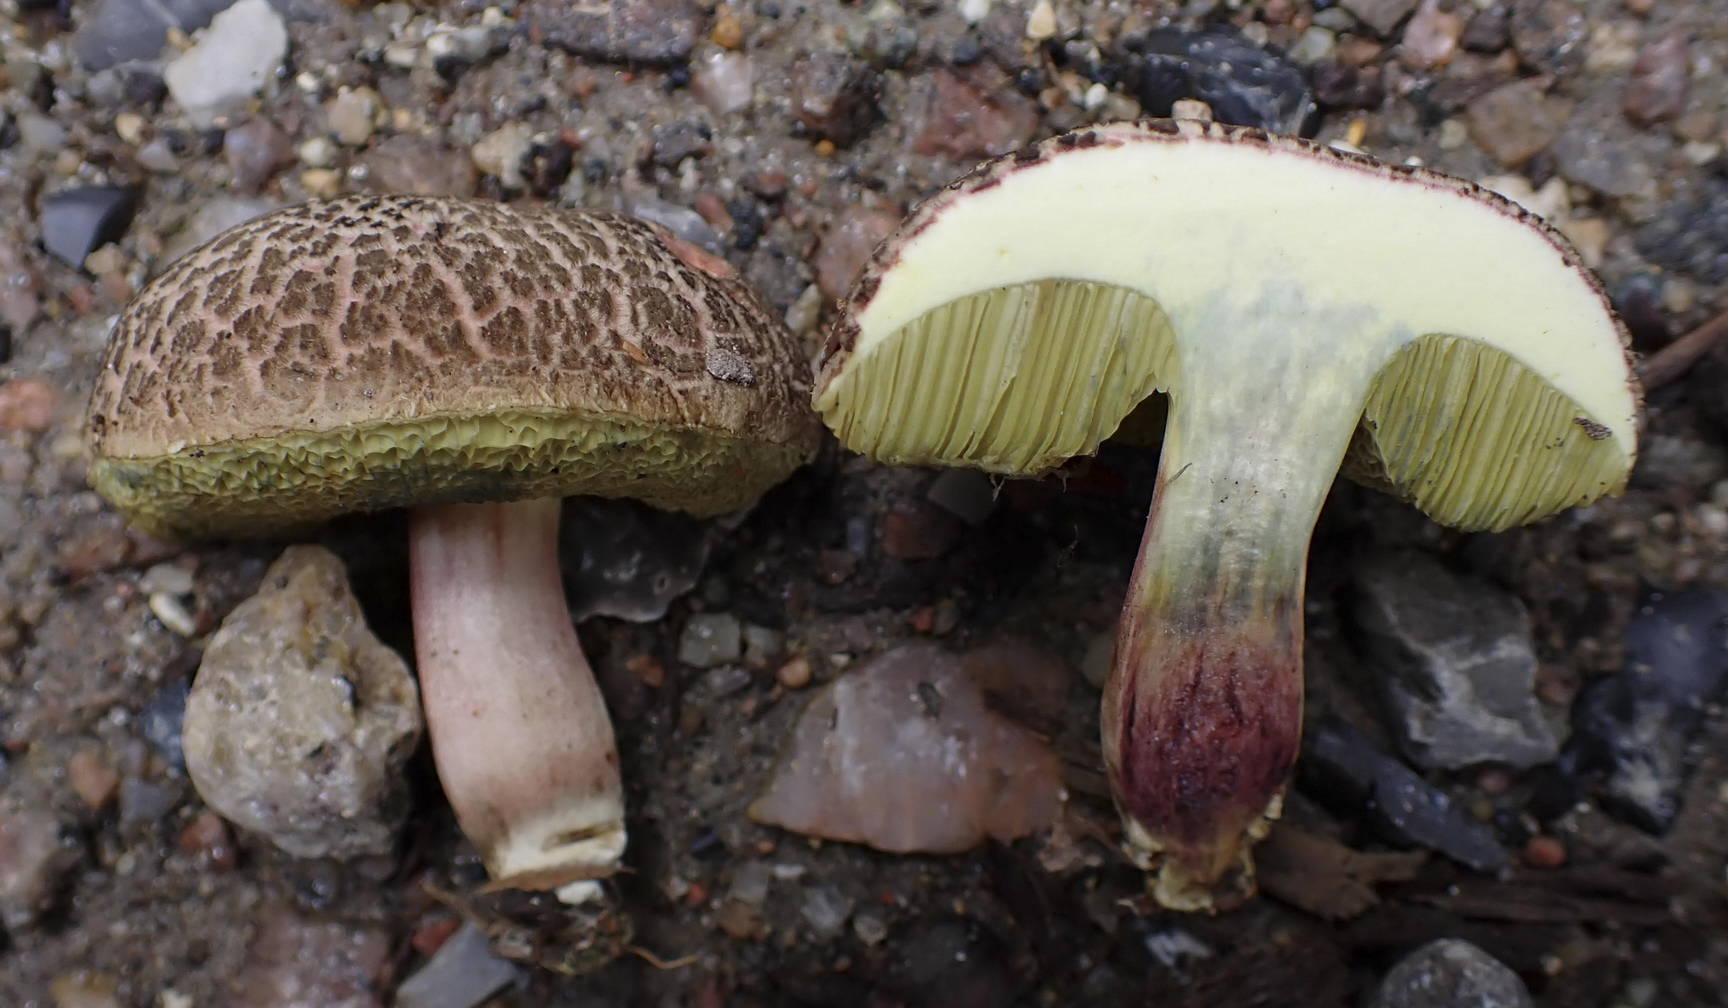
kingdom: Fungi
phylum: Basidiomycota
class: Agaricomycetes
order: Boletales
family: Boletaceae
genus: Xerocomellus
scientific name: Xerocomellus cisalpinus
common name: finsprukken rørhat
